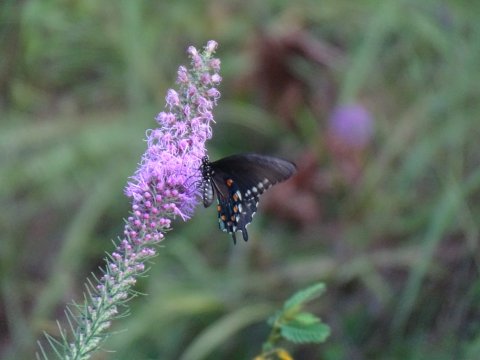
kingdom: Animalia
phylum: Arthropoda
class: Insecta
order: Lepidoptera
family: Papilionidae
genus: Battus
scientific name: Battus philenor
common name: Pipevine Swallowtail
